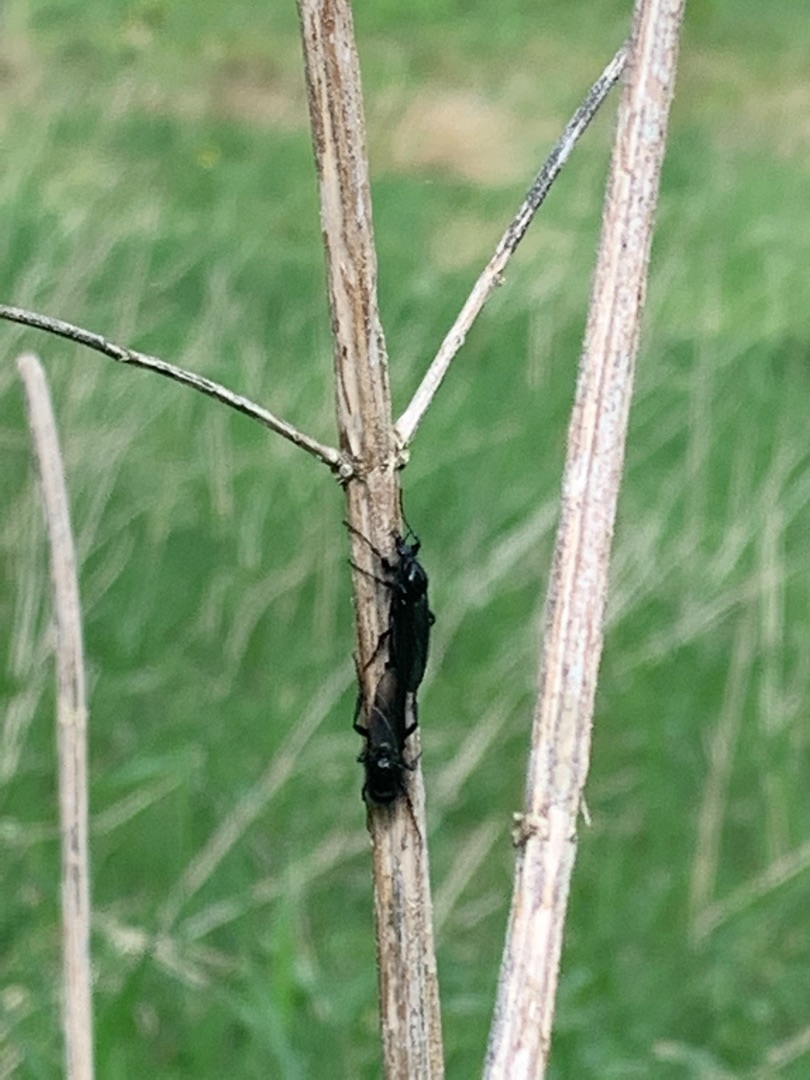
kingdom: Animalia
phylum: Arthropoda
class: Insecta
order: Diptera
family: Bibionidae
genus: Bibio
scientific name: Bibio marci
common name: Skovhårmyg
